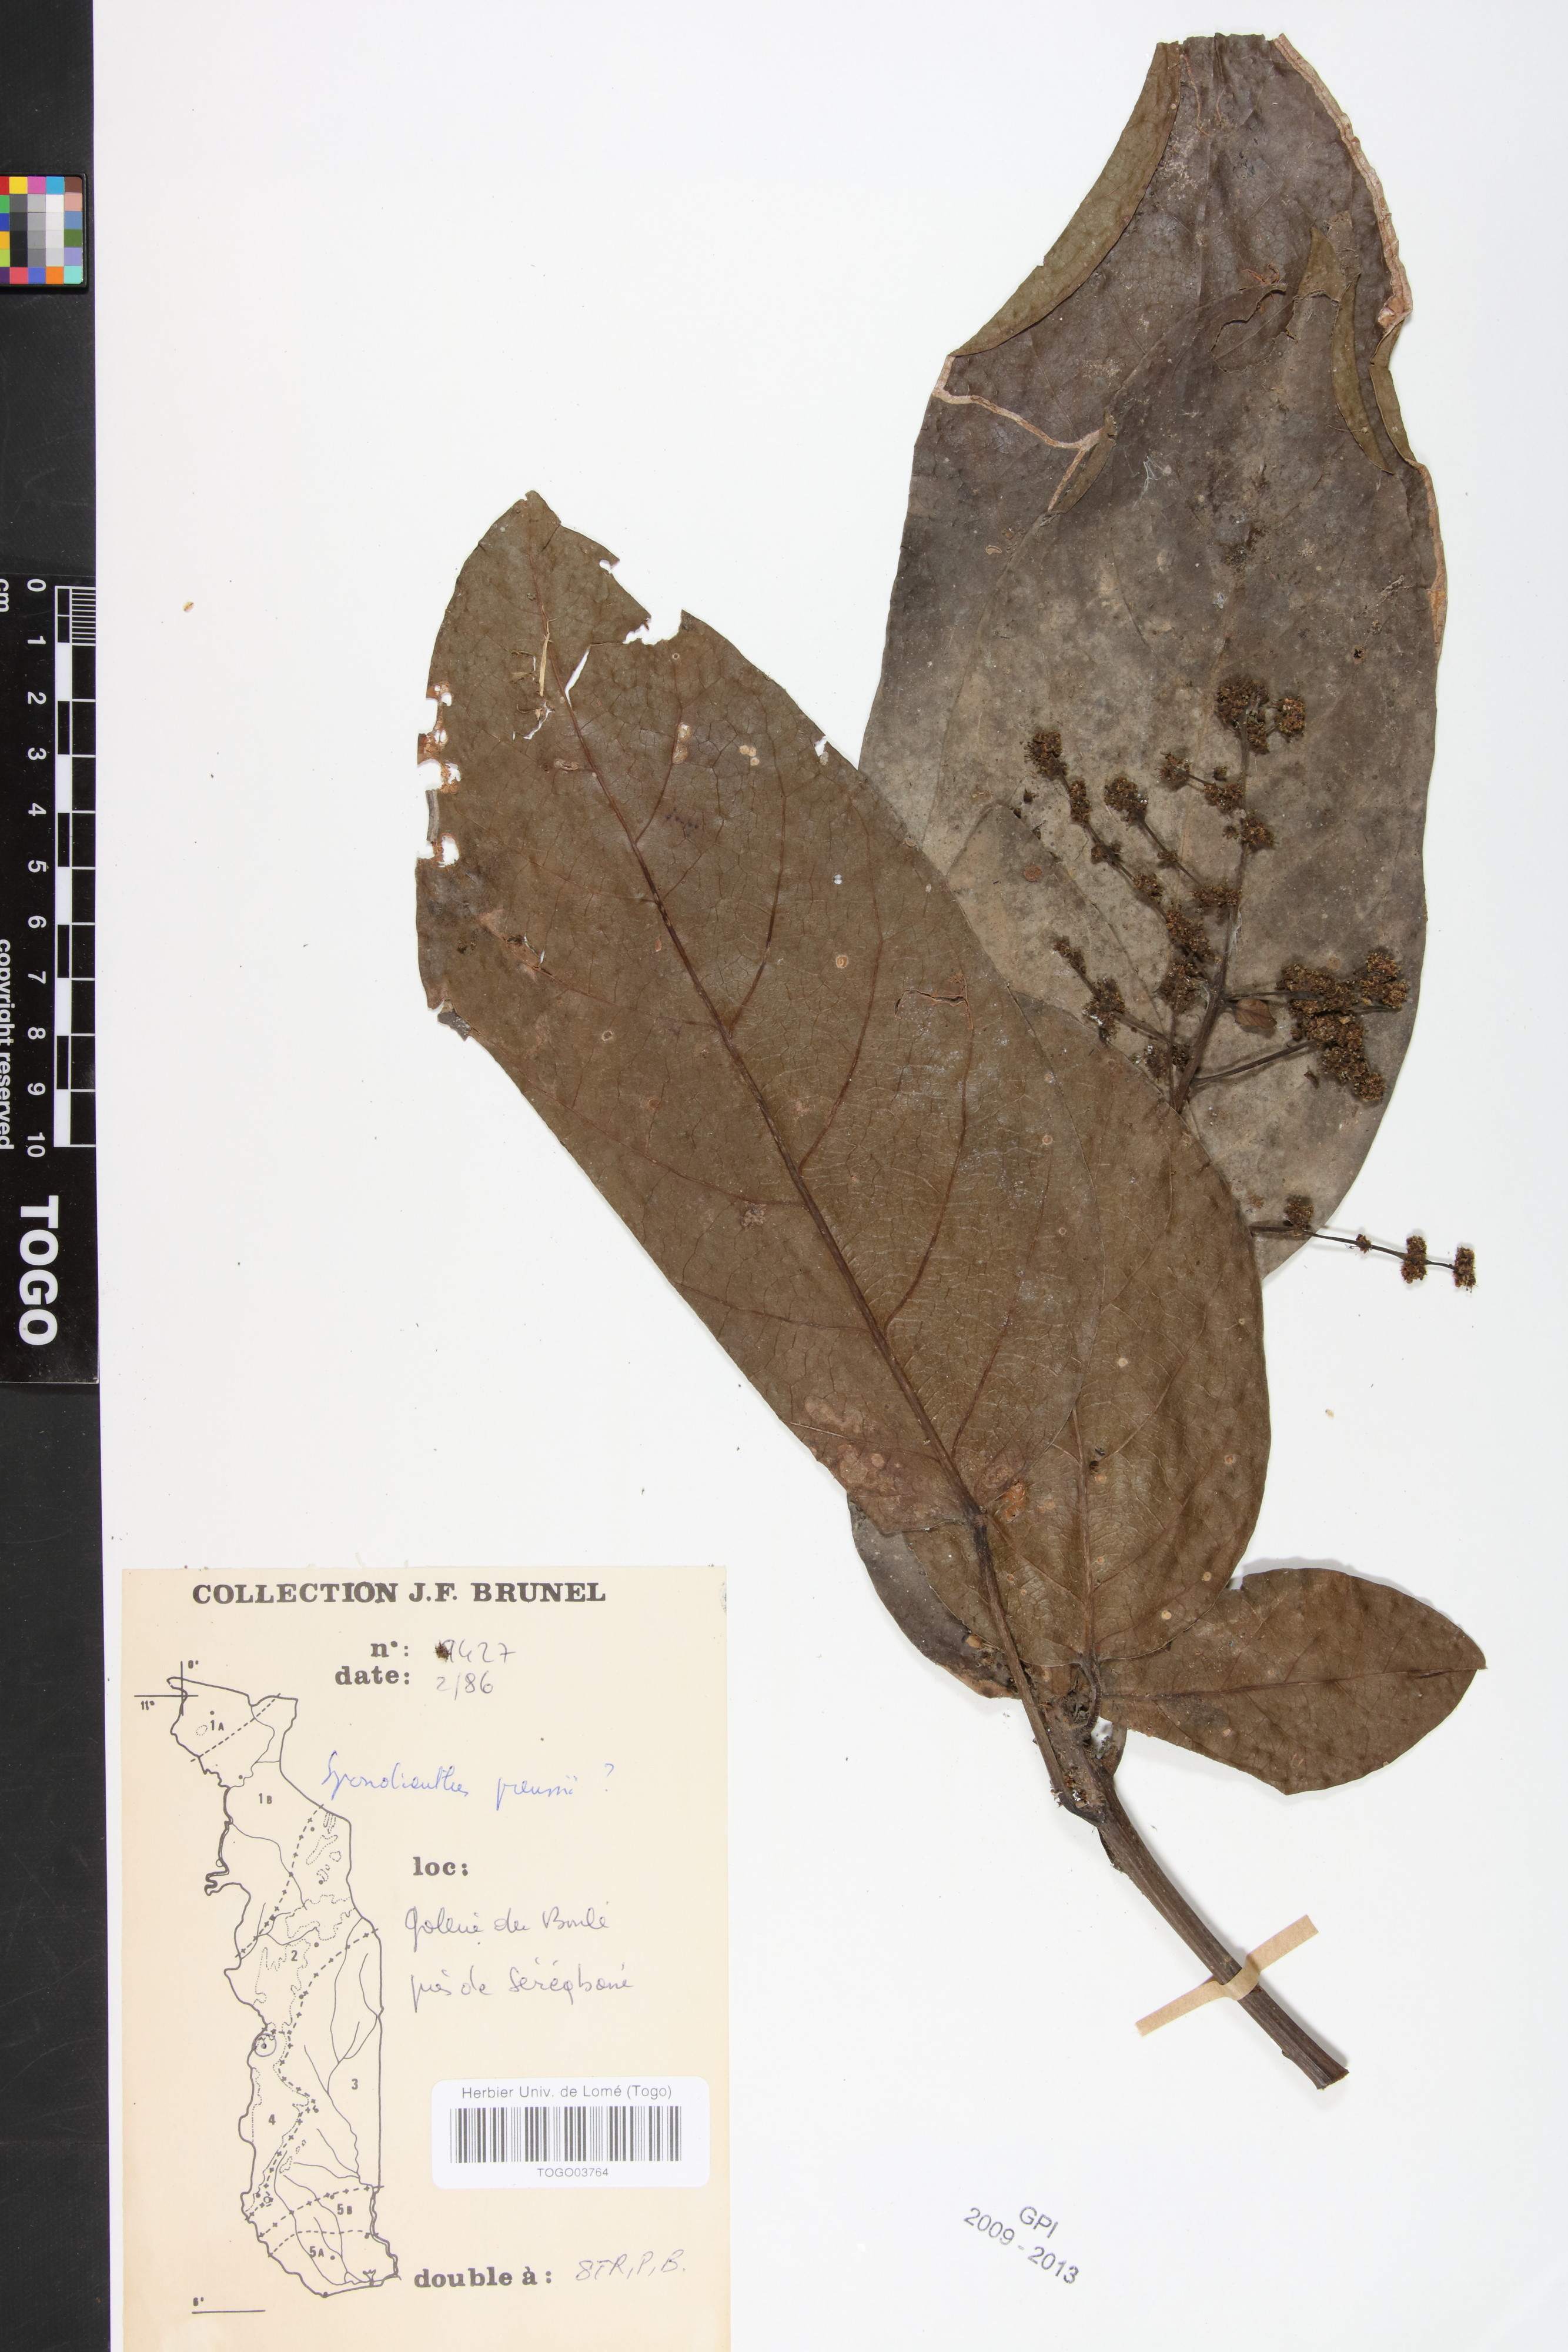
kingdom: Plantae
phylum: Tracheophyta
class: Magnoliopsida
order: Malpighiales
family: Phyllanthaceae
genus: Spondianthus
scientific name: Spondianthus preussii
